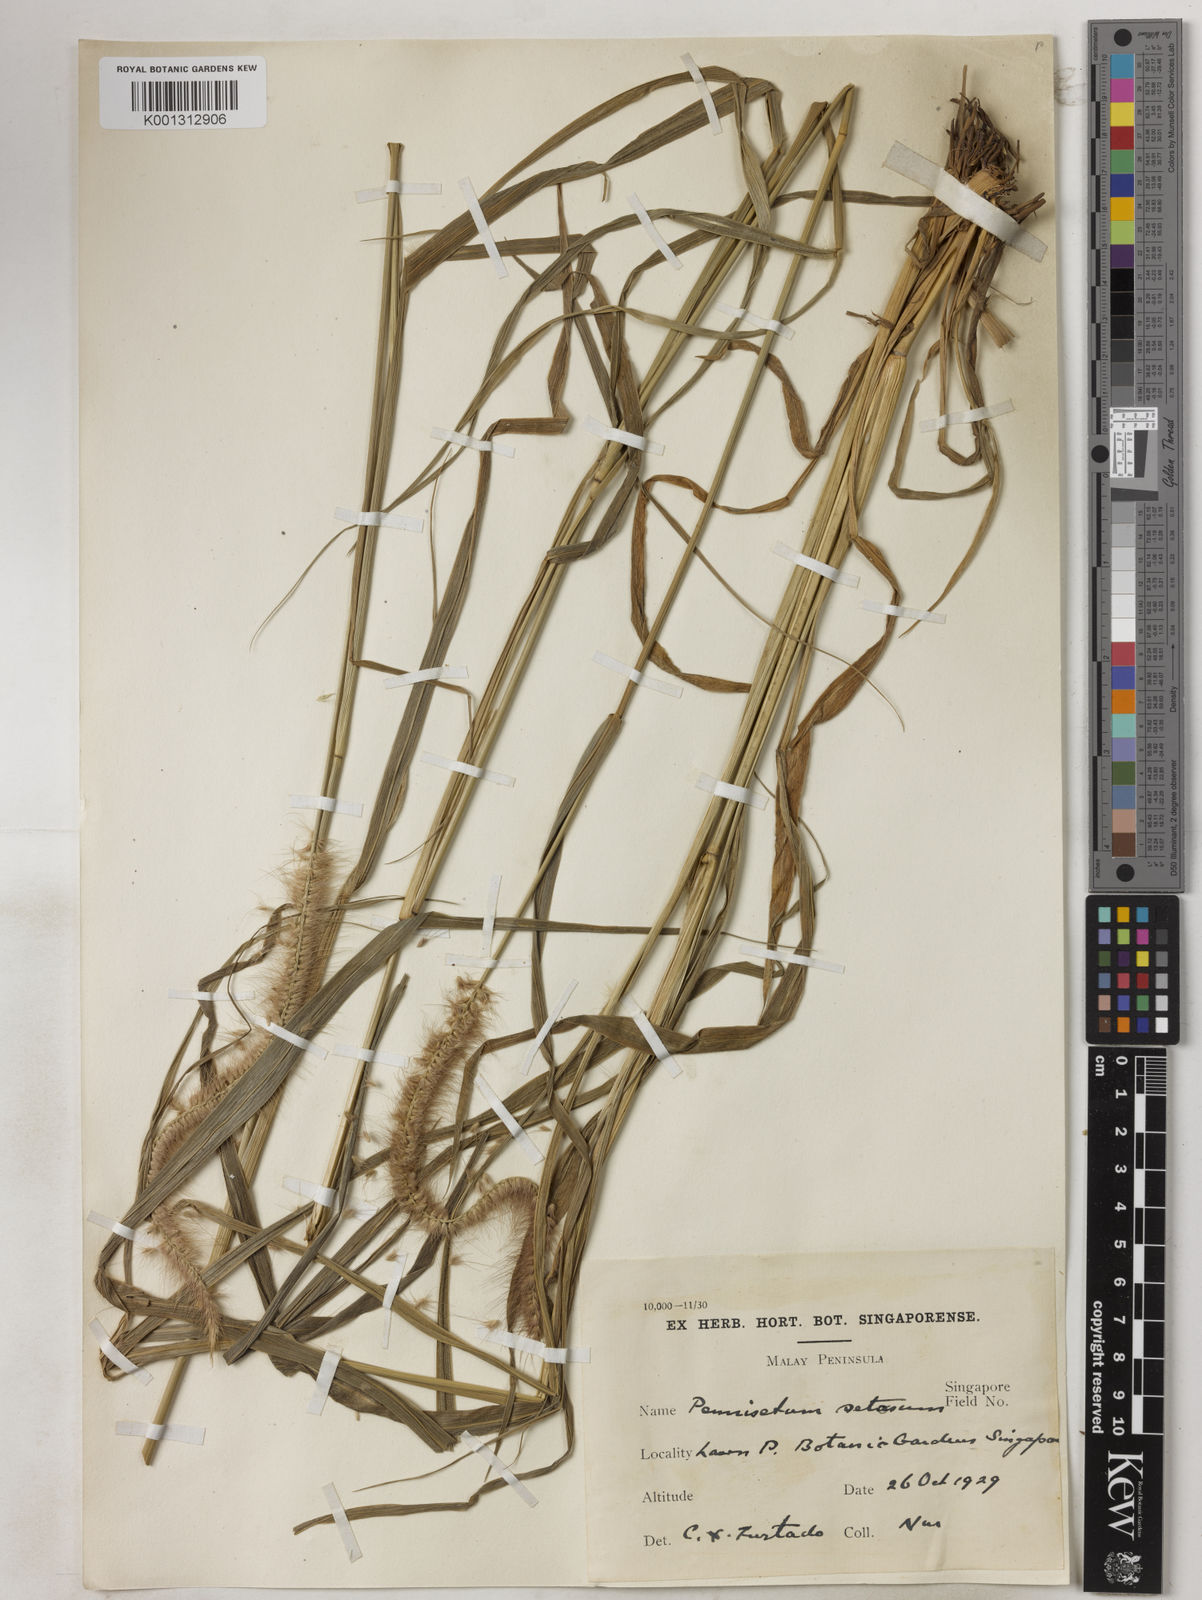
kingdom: Plantae
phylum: Tracheophyta
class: Liliopsida
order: Poales
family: Poaceae
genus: Setaria
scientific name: Setaria parviflora
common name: Knotroot bristle-grass
